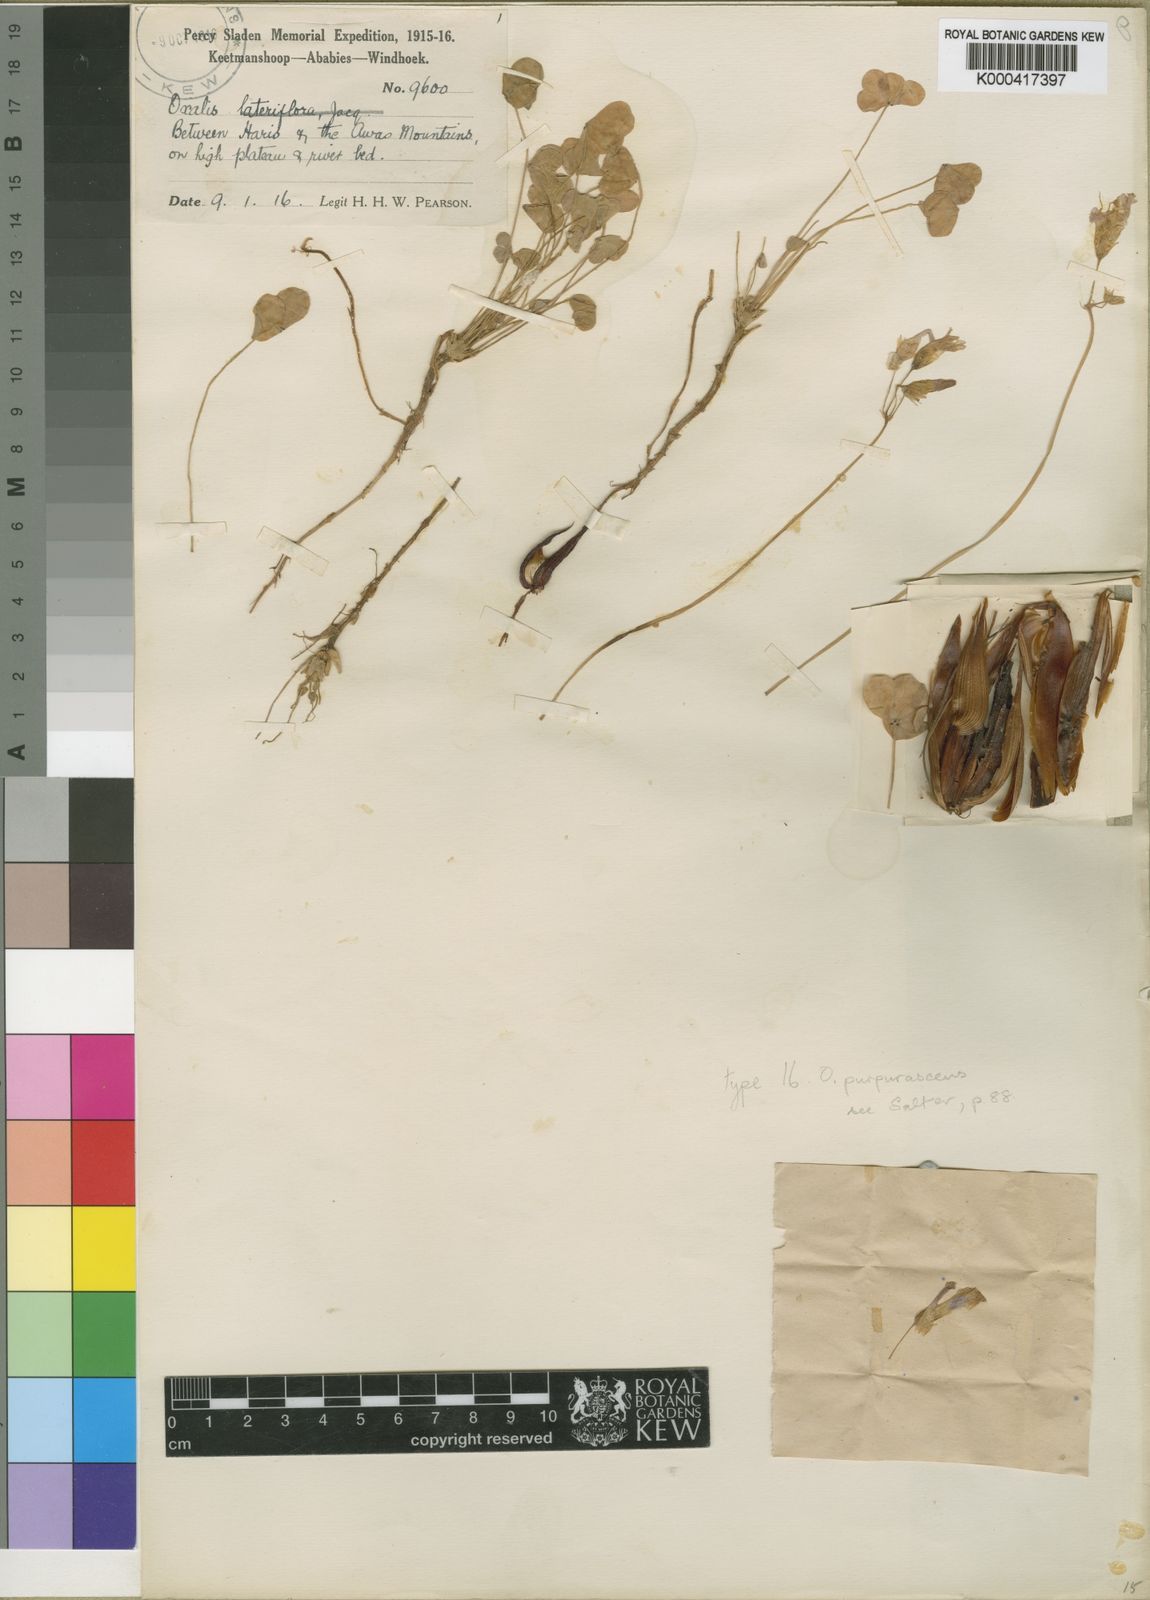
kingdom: Plantae
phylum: Tracheophyta
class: Magnoliopsida
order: Oxalidales
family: Oxalidaceae
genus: Oxalis
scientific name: Oxalis purpurascens
